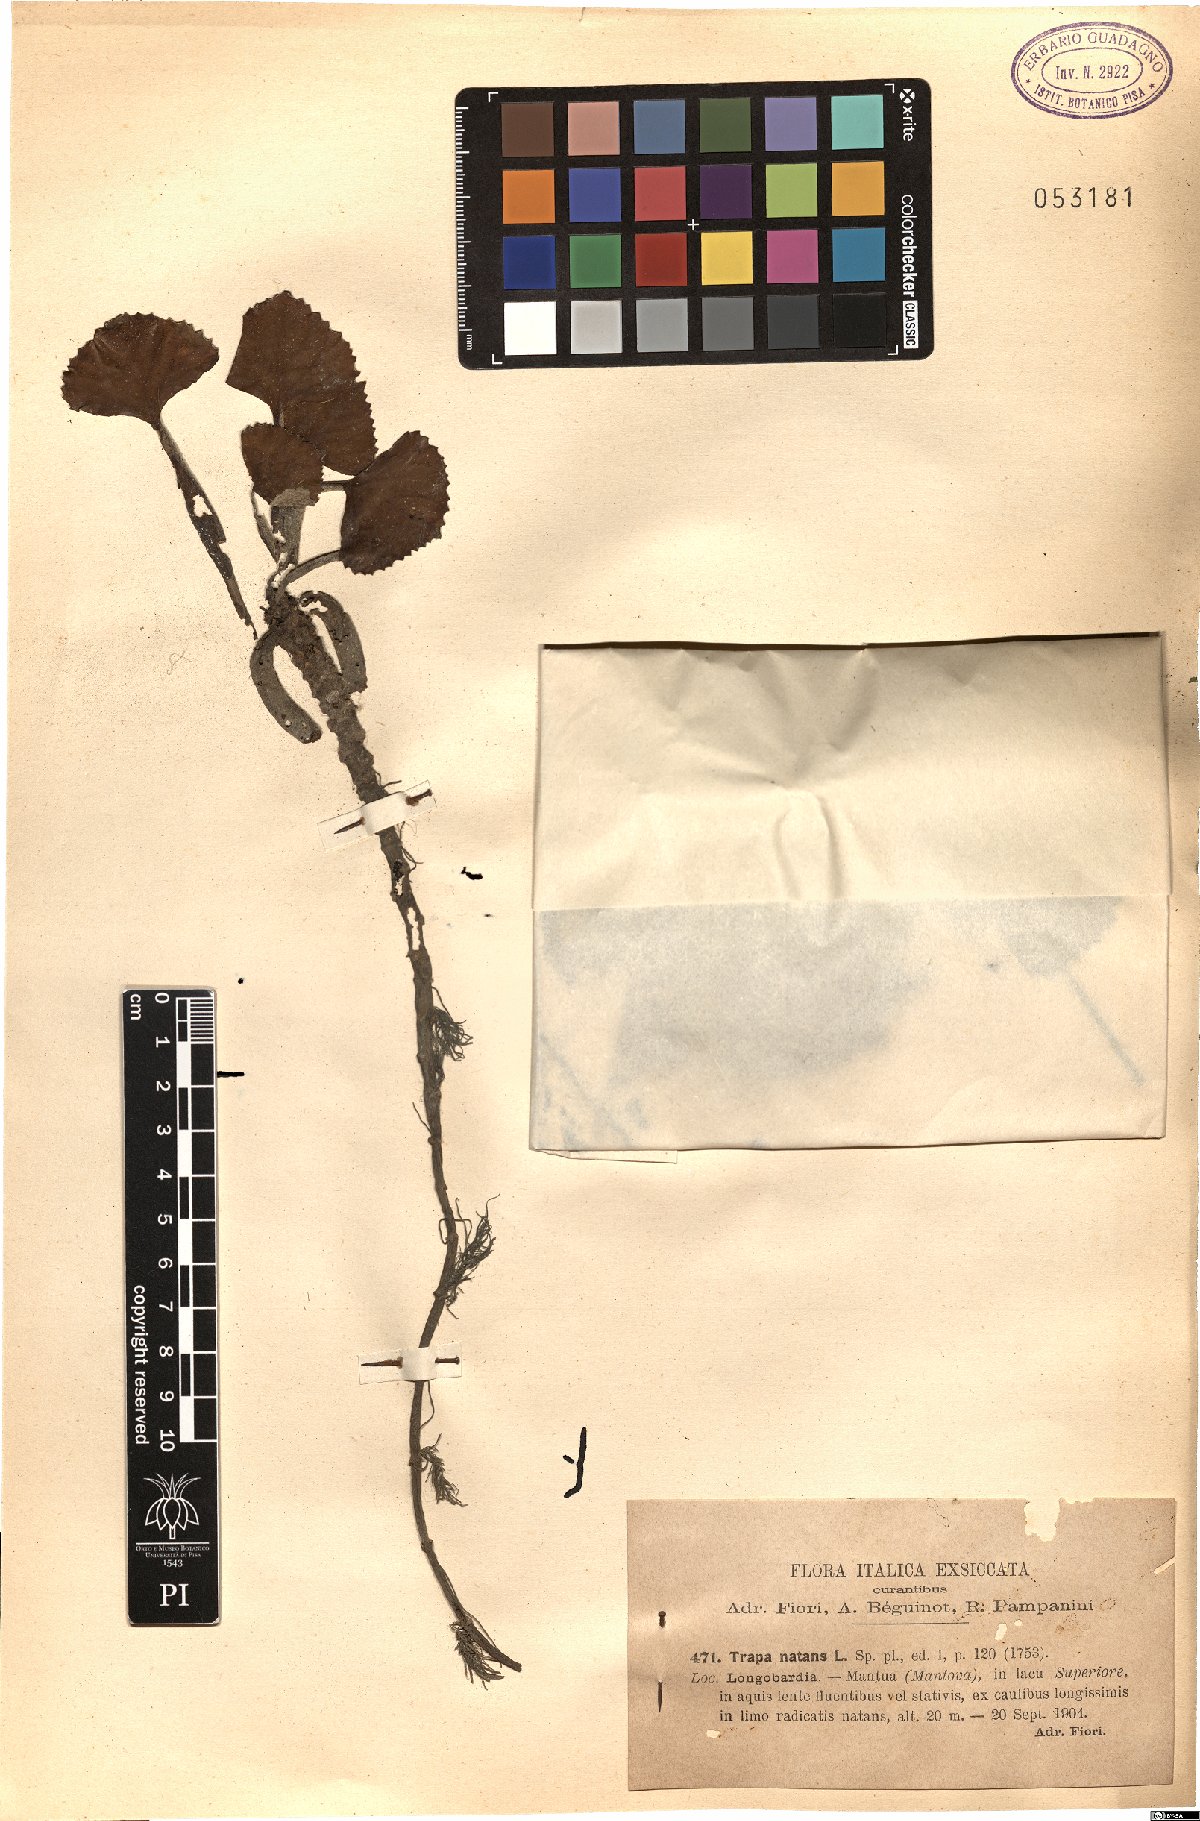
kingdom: Plantae
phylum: Tracheophyta
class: Magnoliopsida
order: Myrtales
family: Lythraceae
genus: Trapa
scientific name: Trapa natans
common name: Water chestnut
